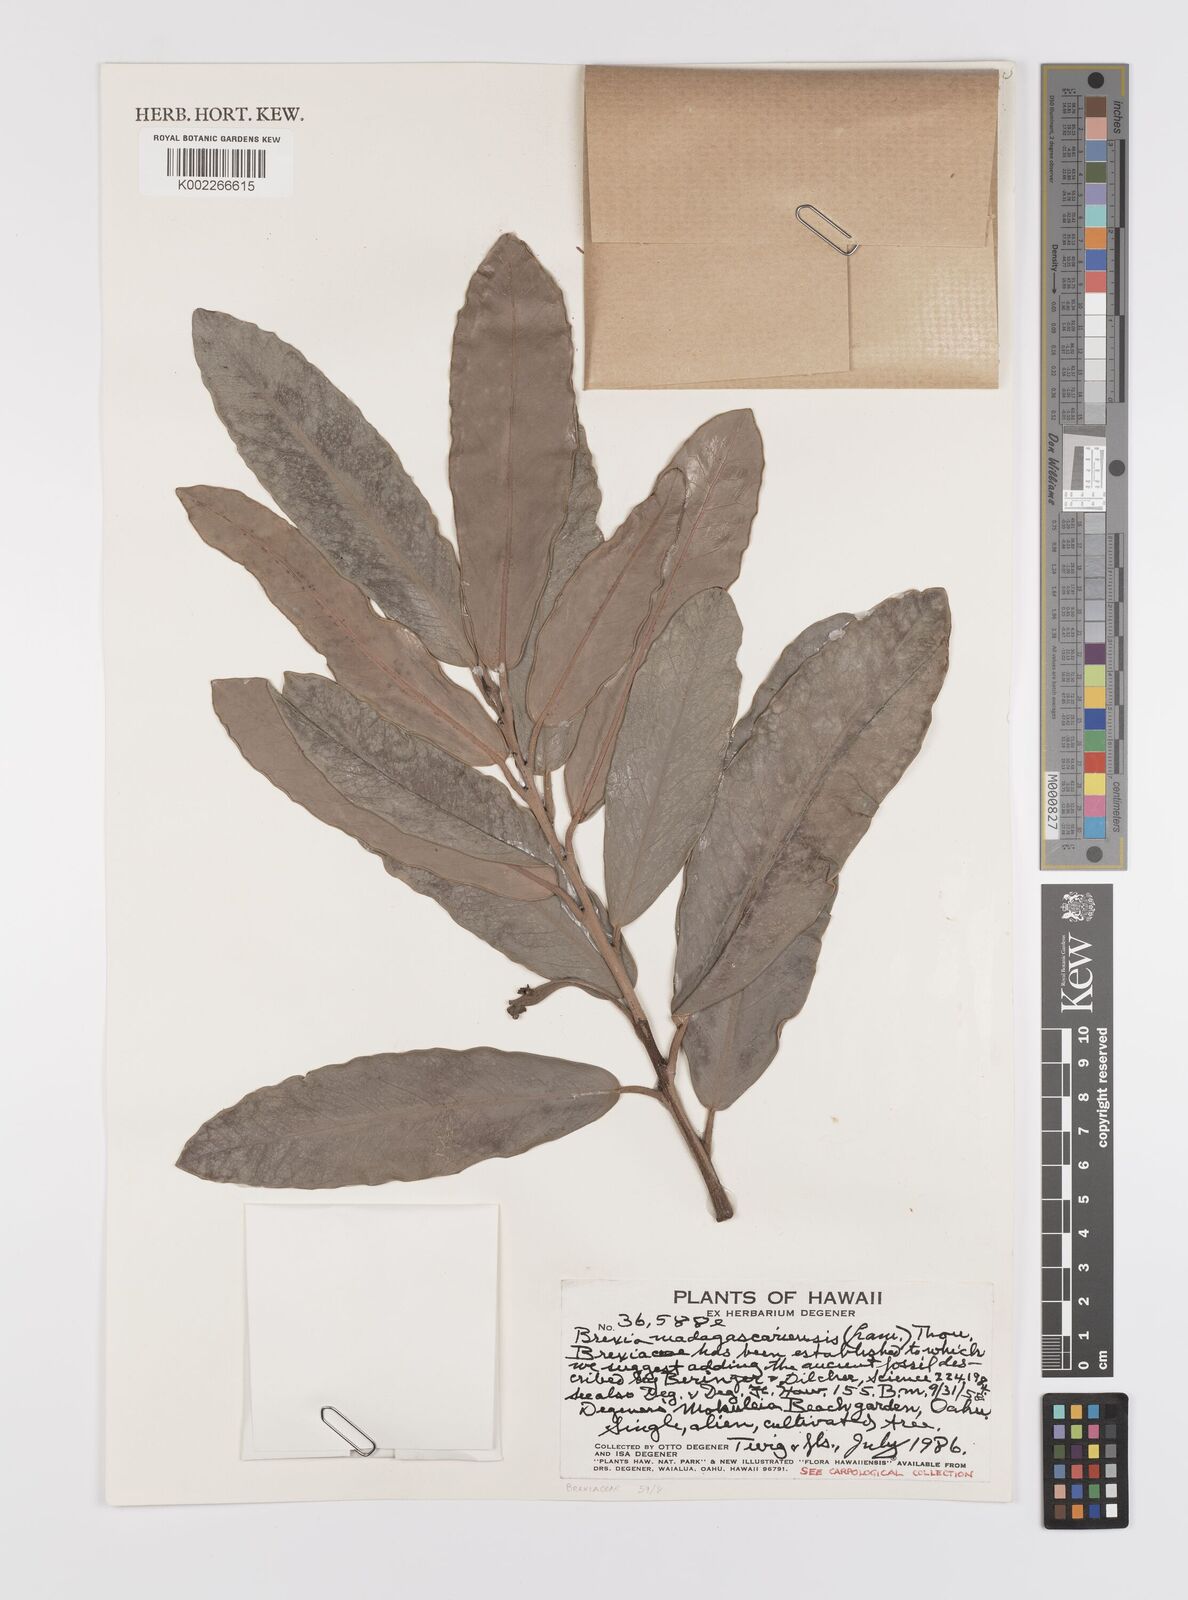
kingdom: Plantae
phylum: Tracheophyta
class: Magnoliopsida
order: Celastrales
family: Celastraceae
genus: Brexia
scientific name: Brexia madagascariensis
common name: Brexia
